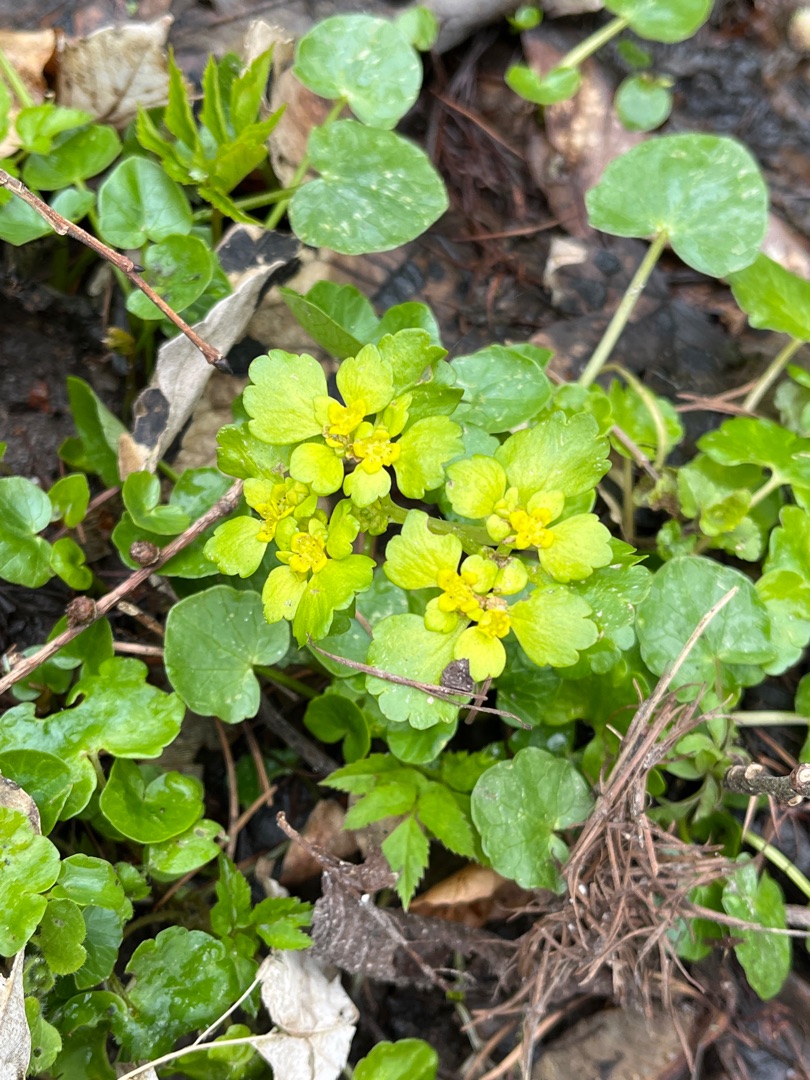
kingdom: Plantae
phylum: Tracheophyta
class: Magnoliopsida
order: Saxifragales
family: Saxifragaceae
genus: Chrysosplenium
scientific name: Chrysosplenium alternifolium
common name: Almindelig milturt
